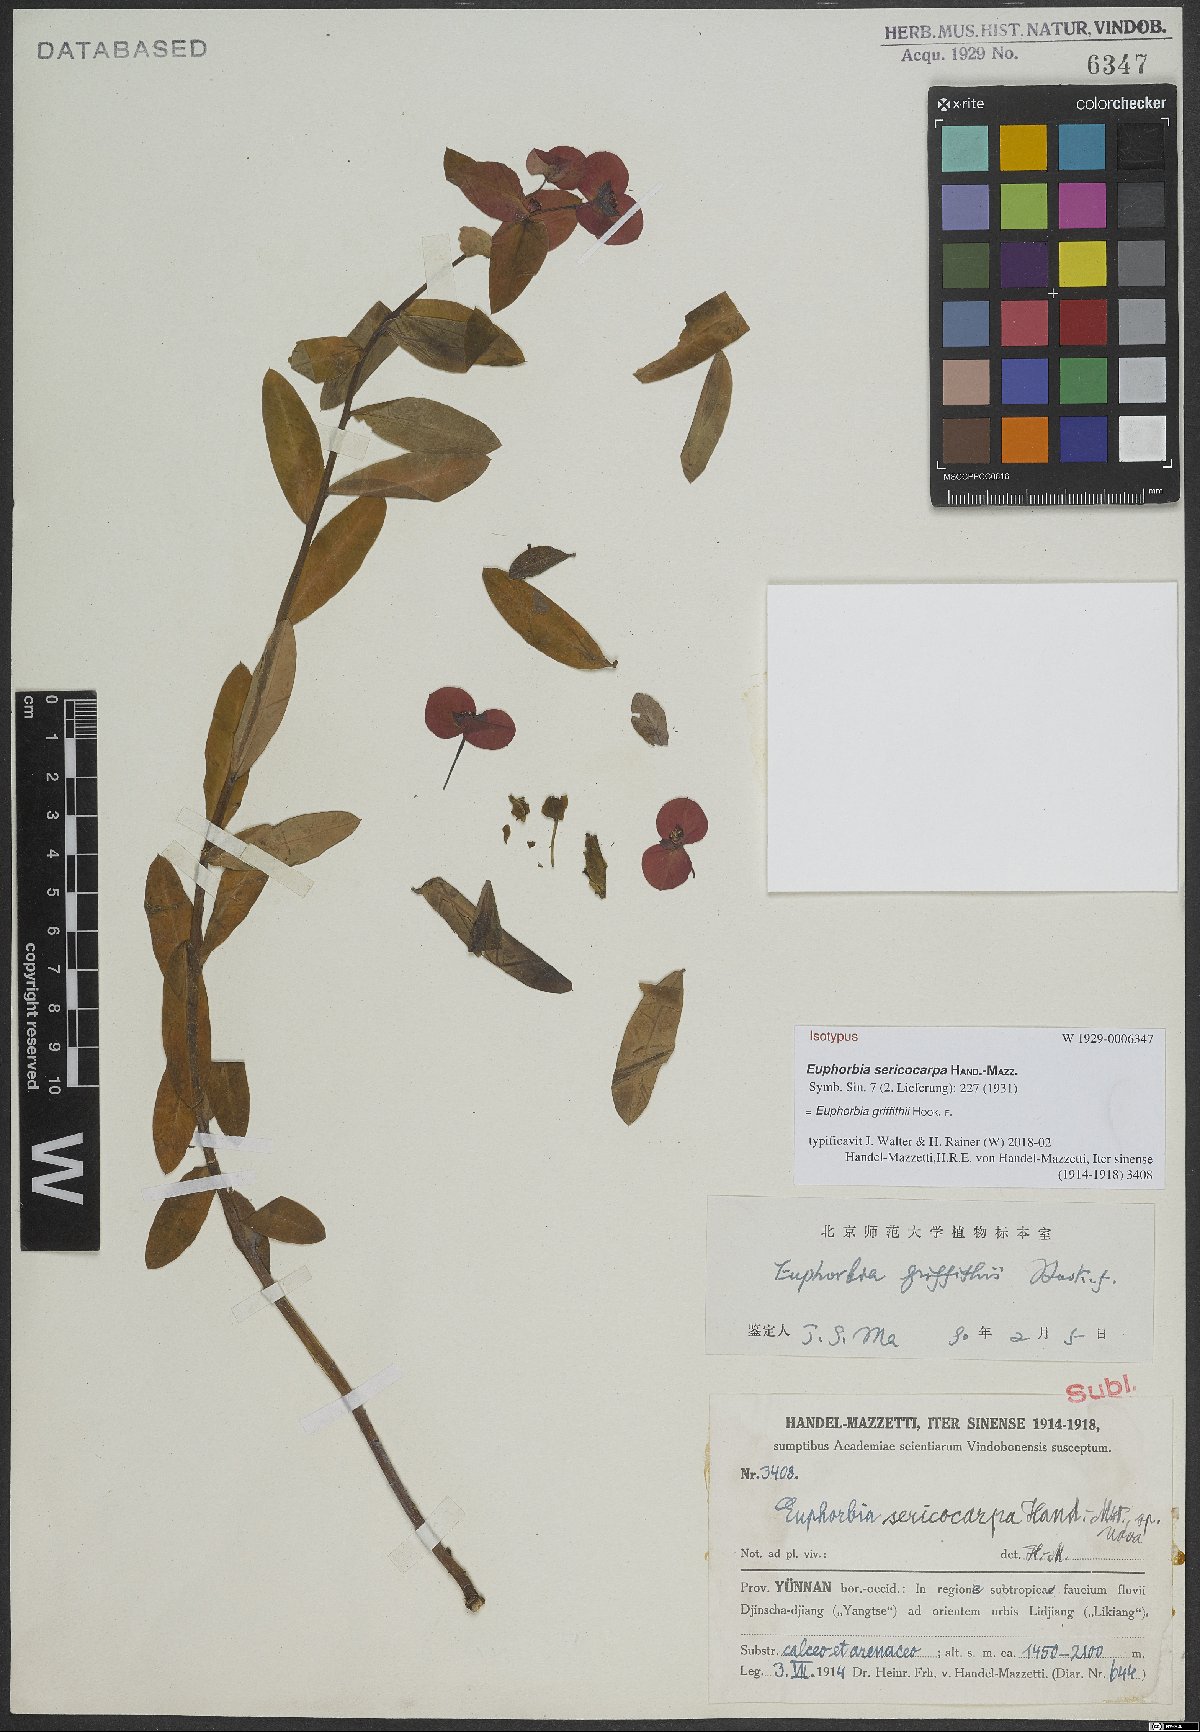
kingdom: Plantae
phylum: Tracheophyta
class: Magnoliopsida
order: Malpighiales
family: Euphorbiaceae
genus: Euphorbia
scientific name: Euphorbia griffithii
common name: Griffith's spurge
